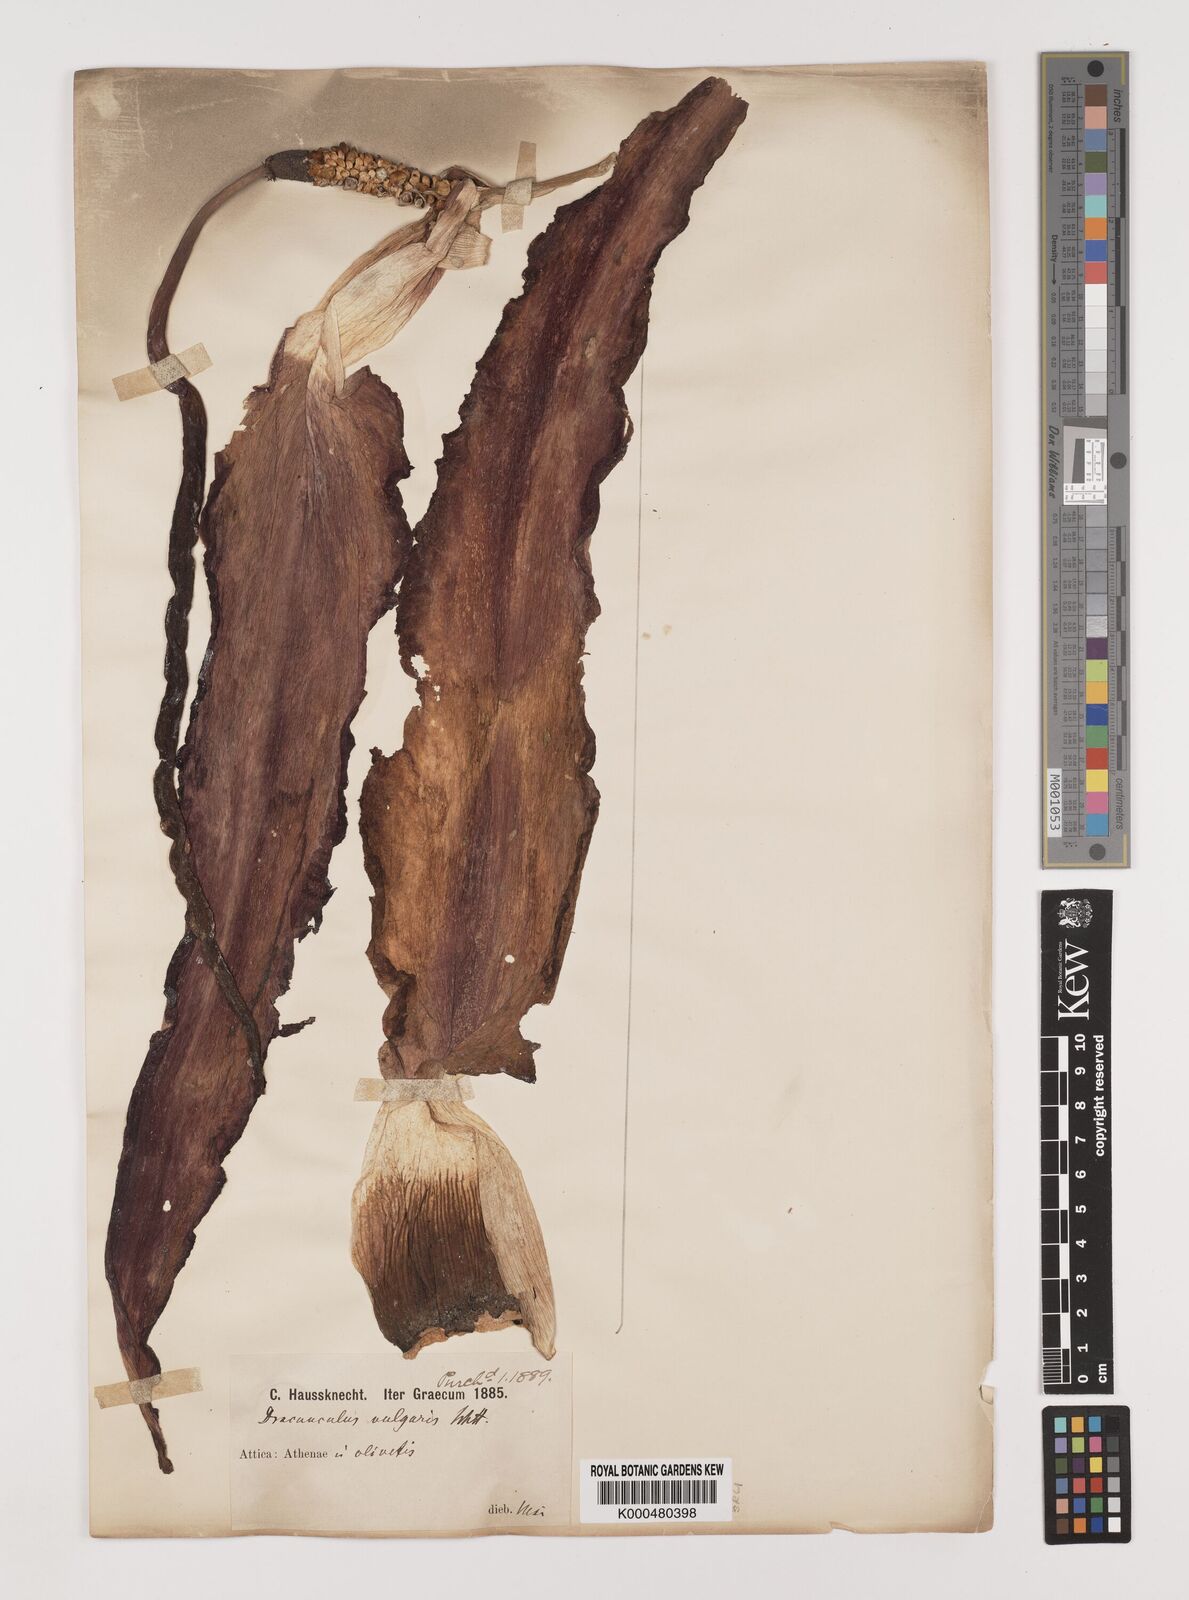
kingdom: Plantae
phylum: Tracheophyta
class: Liliopsida
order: Alismatales
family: Araceae
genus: Dracunculus
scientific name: Dracunculus vulgaris
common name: Dragon arum
